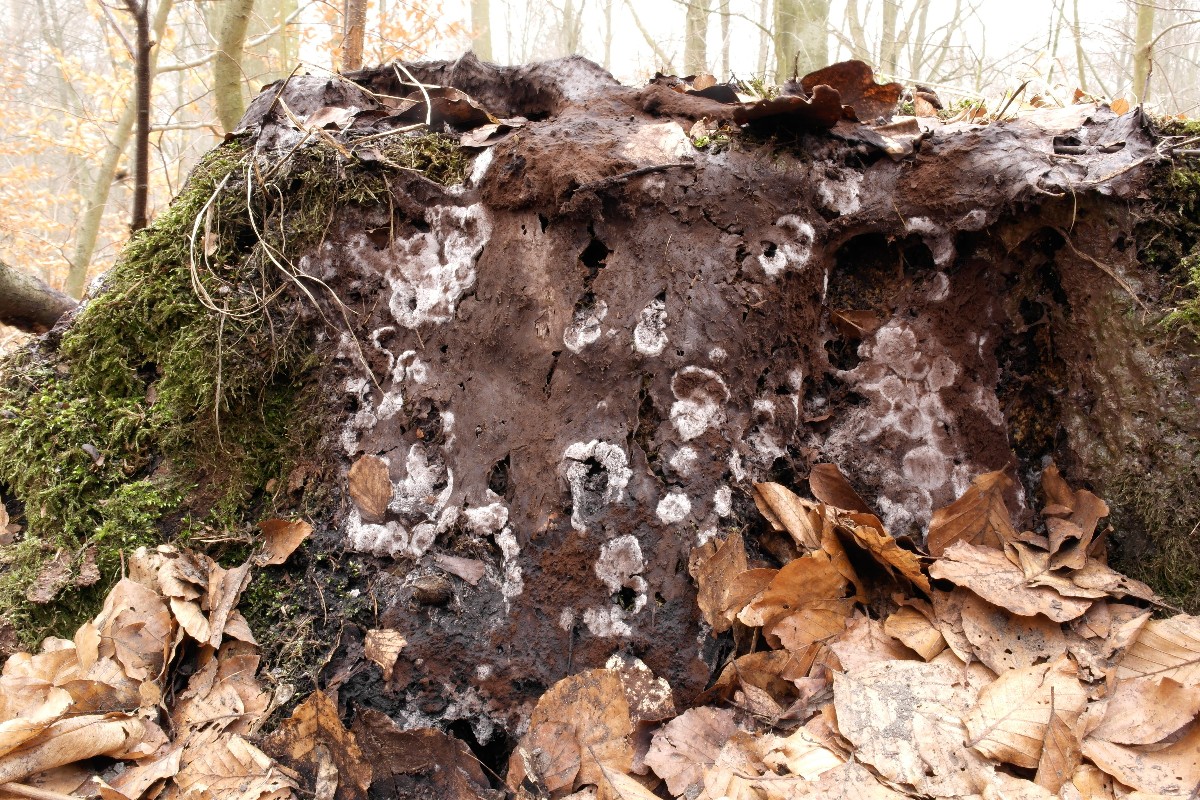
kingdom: Protozoa
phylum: Mycetozoa
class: Myxomycetes
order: Stemonitidales
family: Stemonitidaceae
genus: Brefeldia
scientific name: Brefeldia maxima
